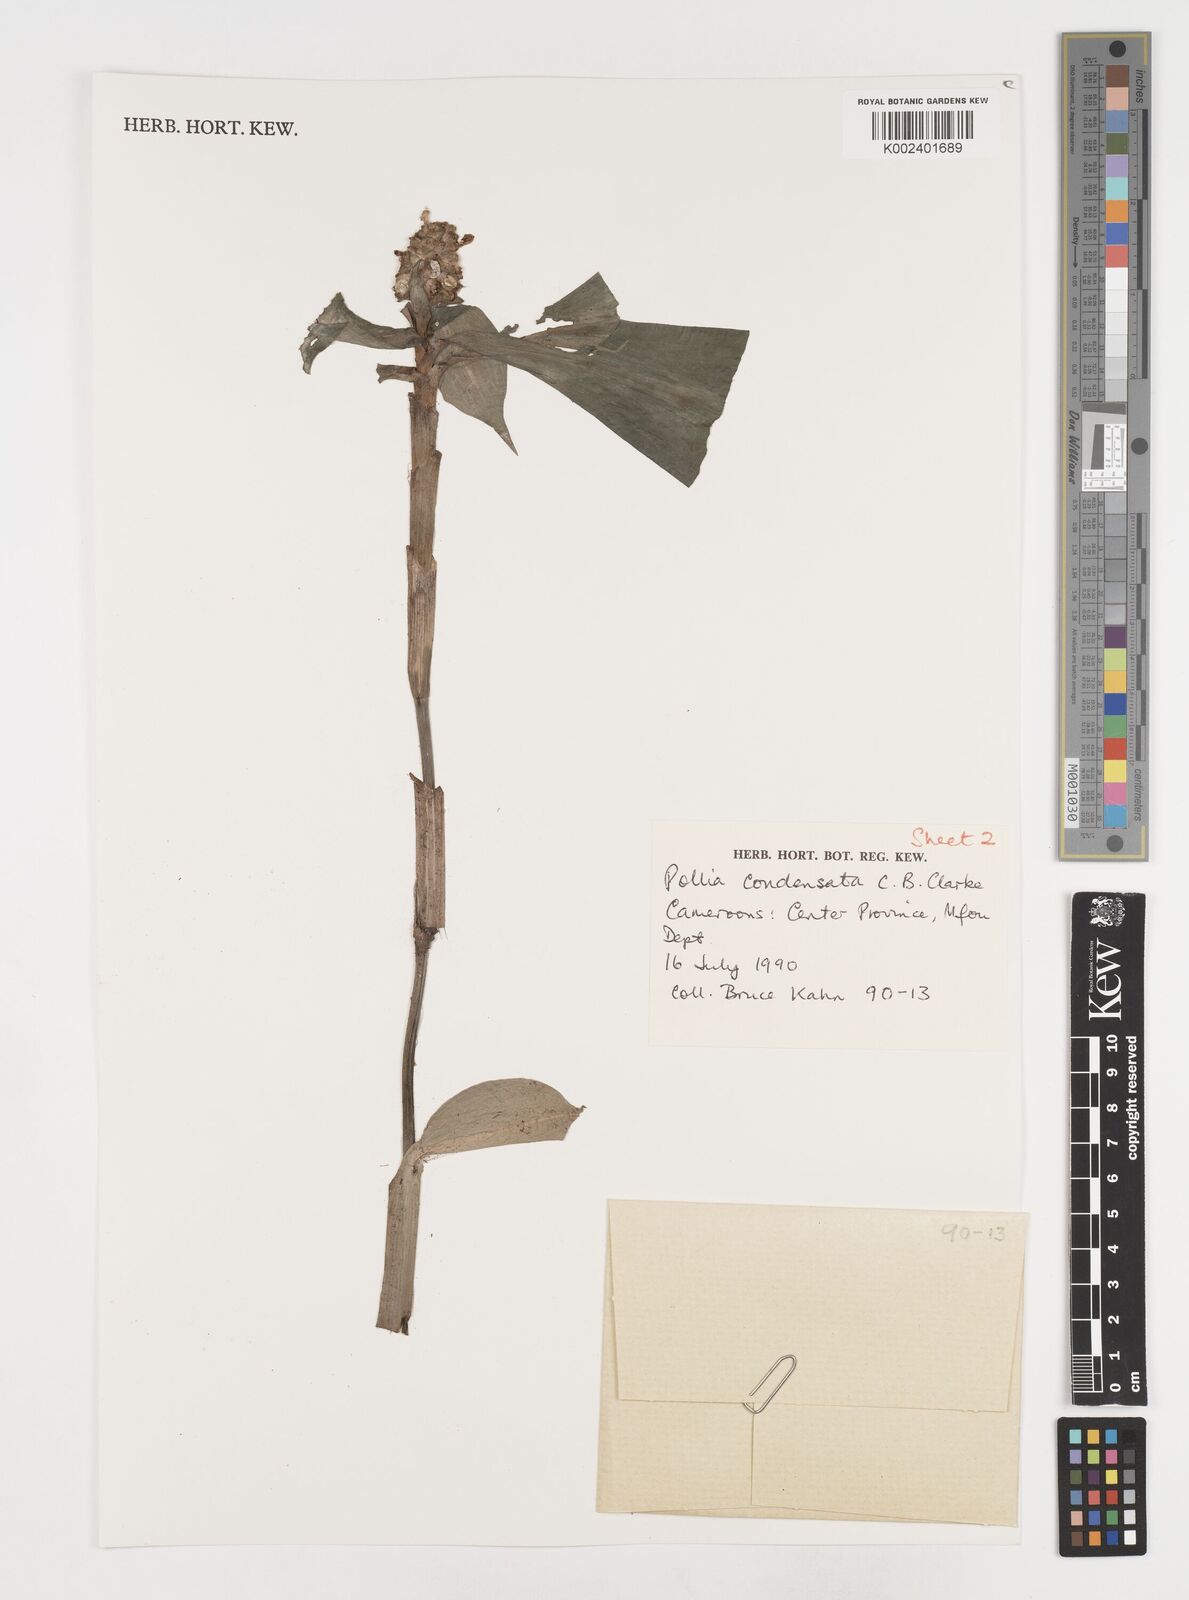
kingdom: Plantae
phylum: Tracheophyta
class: Liliopsida
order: Commelinales
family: Commelinaceae
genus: Pollia
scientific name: Pollia condensata
